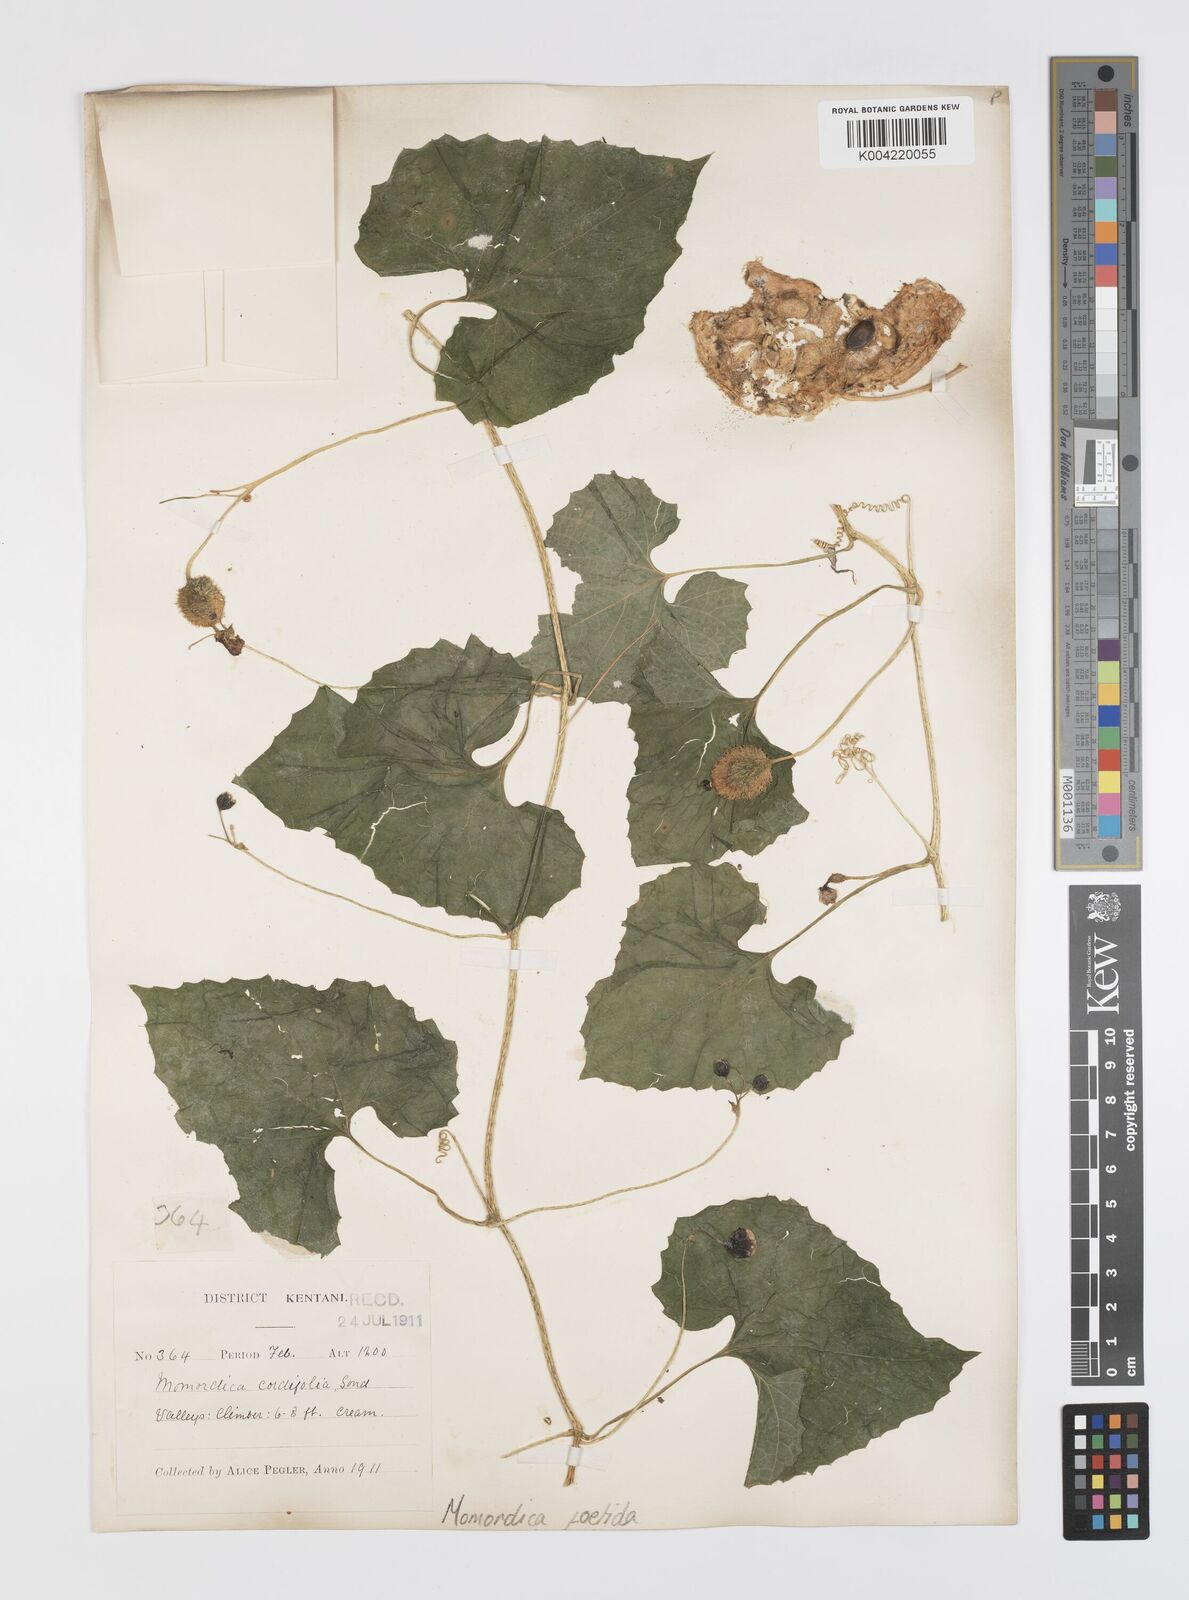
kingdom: Plantae
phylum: Tracheophyta
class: Magnoliopsida
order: Cucurbitales
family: Cucurbitaceae
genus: Momordica
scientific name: Momordica foetida
